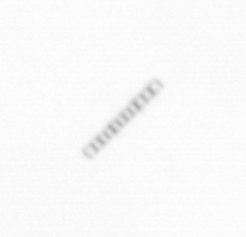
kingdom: Chromista
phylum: Ochrophyta
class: Bacillariophyceae
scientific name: Bacillariophyceae
